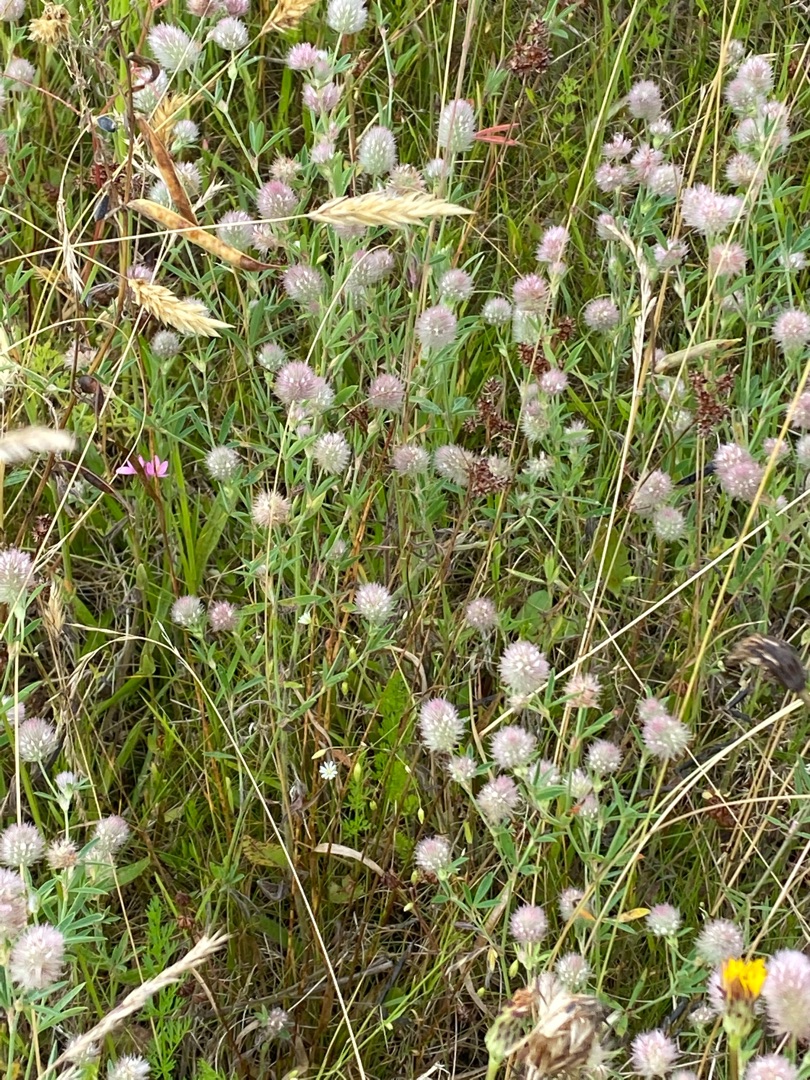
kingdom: Plantae
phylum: Tracheophyta
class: Magnoliopsida
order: Fabales
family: Fabaceae
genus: Trifolium
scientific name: Trifolium arvense
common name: Hare-kløver
